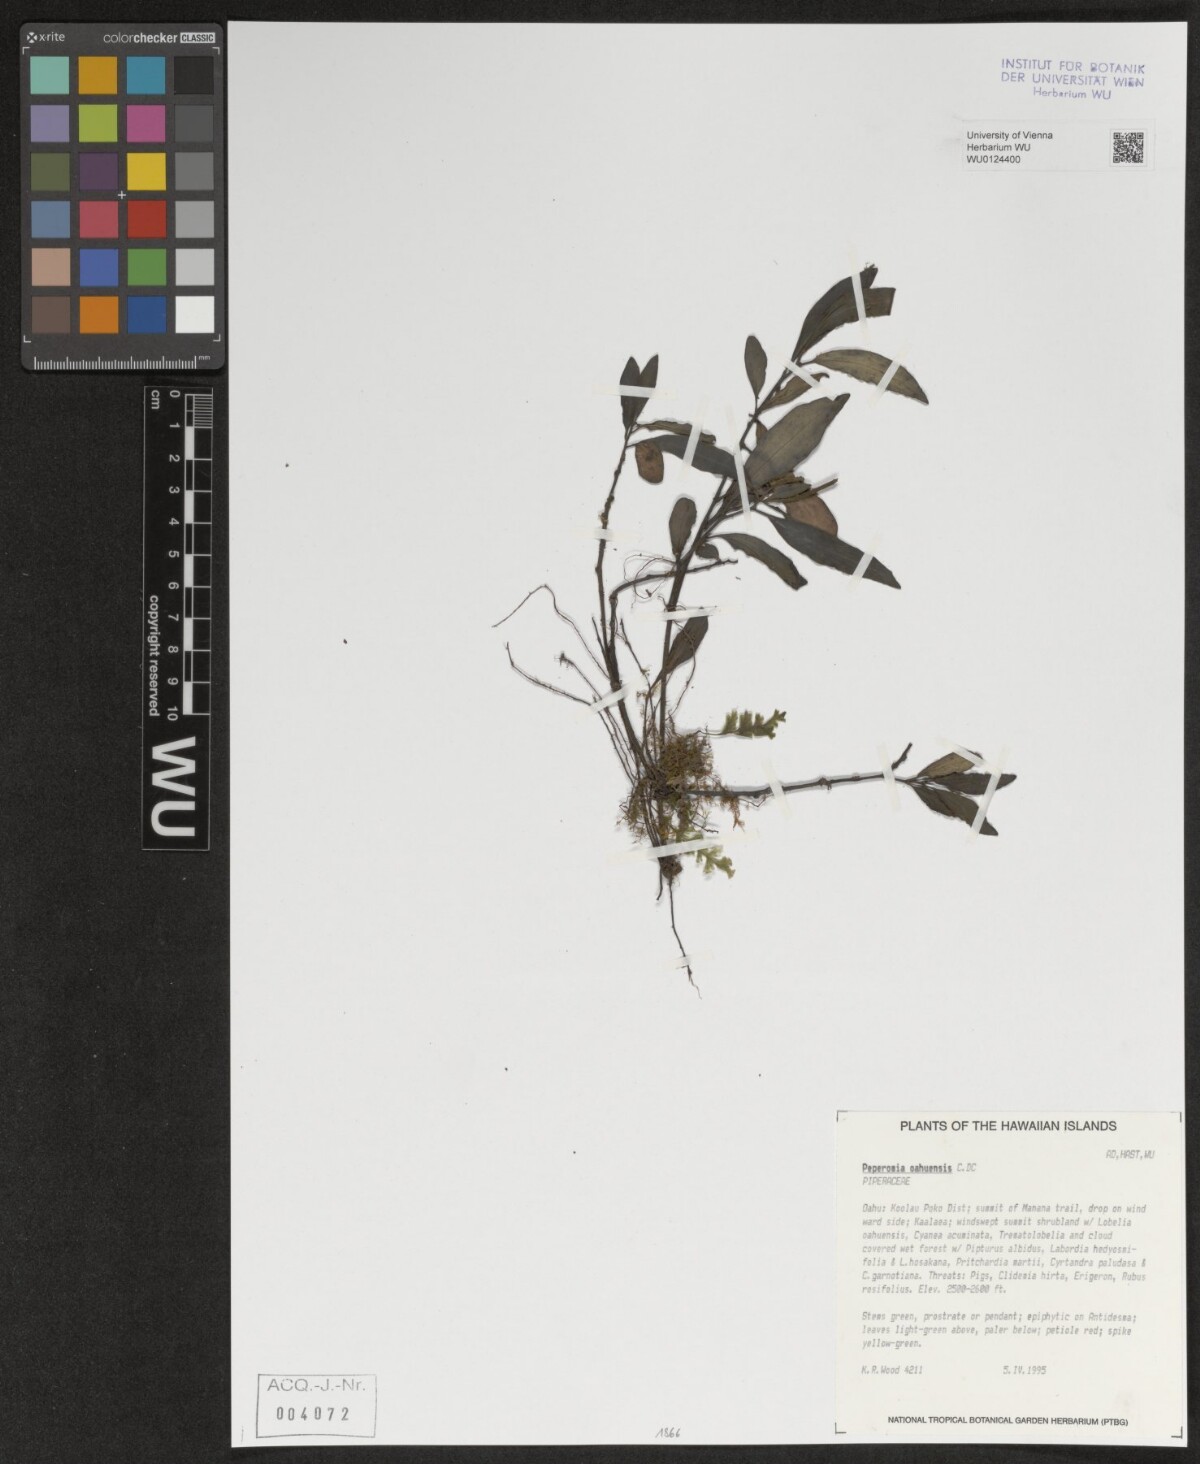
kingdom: Plantae
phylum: Tracheophyta
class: Magnoliopsida
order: Piperales
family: Piperaceae
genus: Peperomia
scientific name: Peperomia oahuensis
